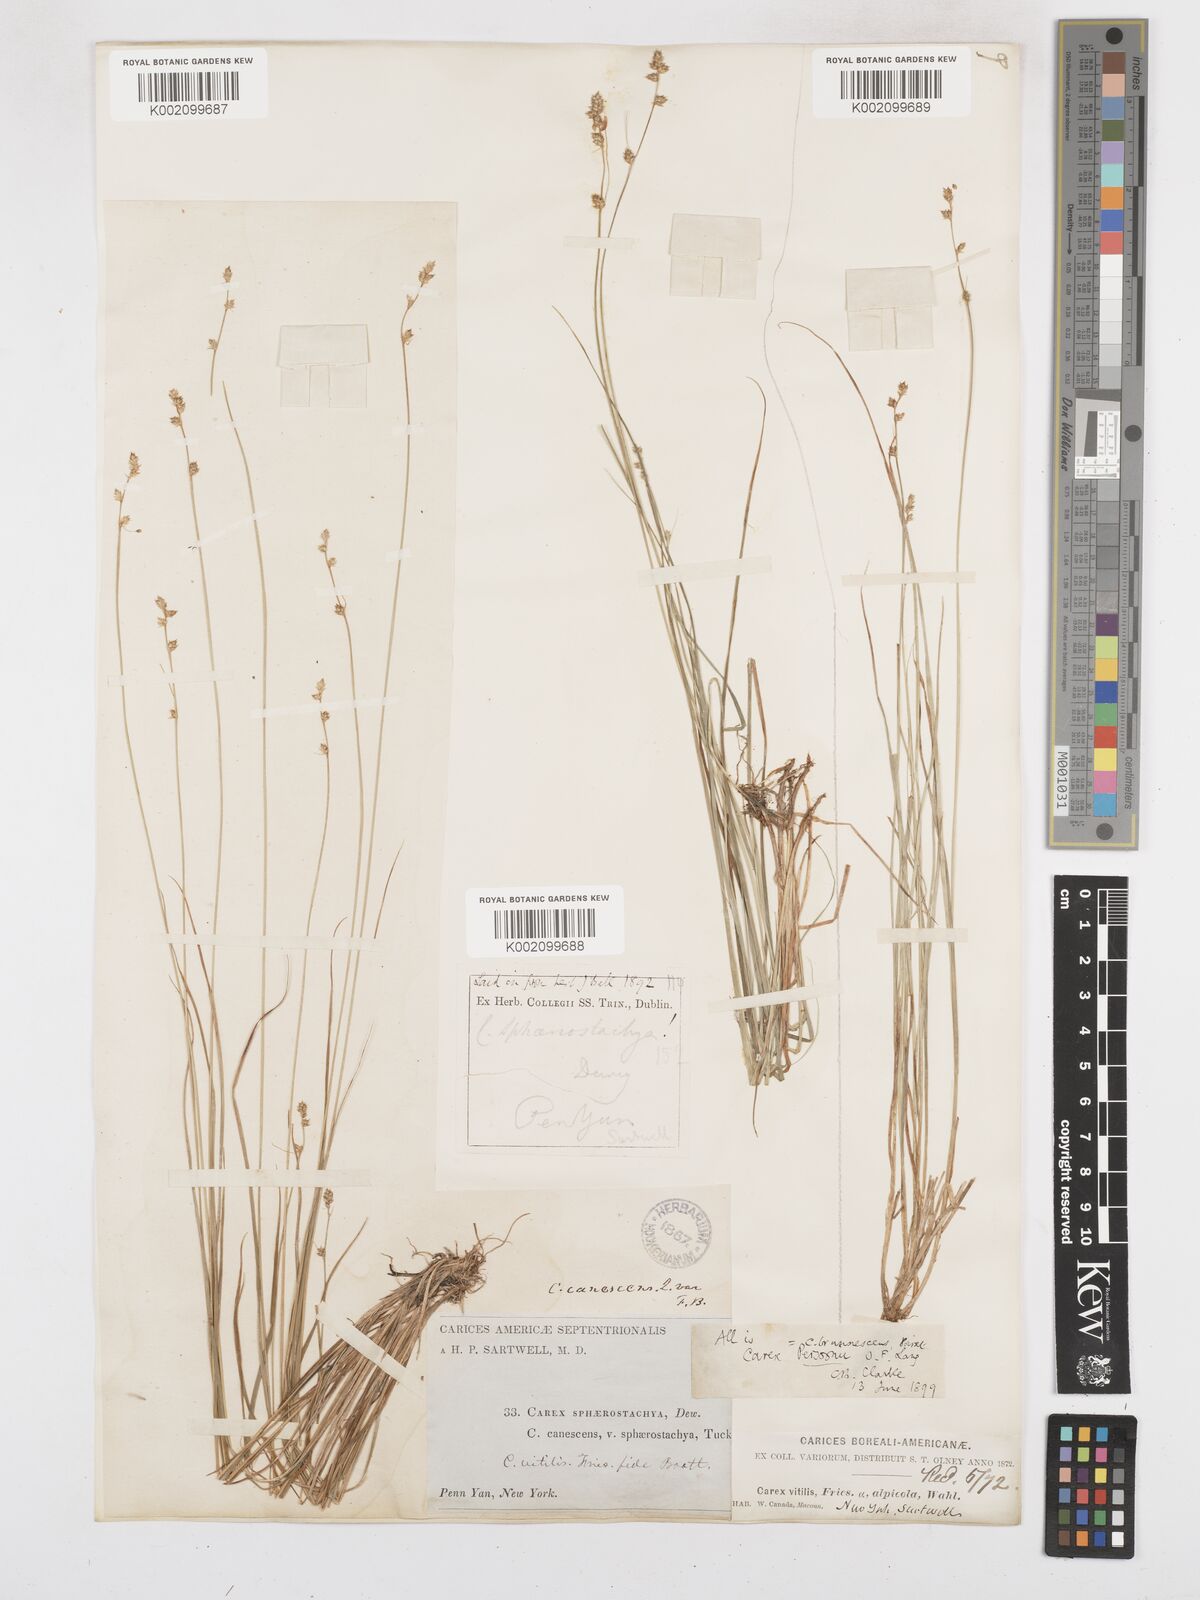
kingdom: Plantae
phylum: Tracheophyta
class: Liliopsida
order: Poales
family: Cyperaceae
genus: Carex
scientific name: Carex brunnescens
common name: Brown sedge
